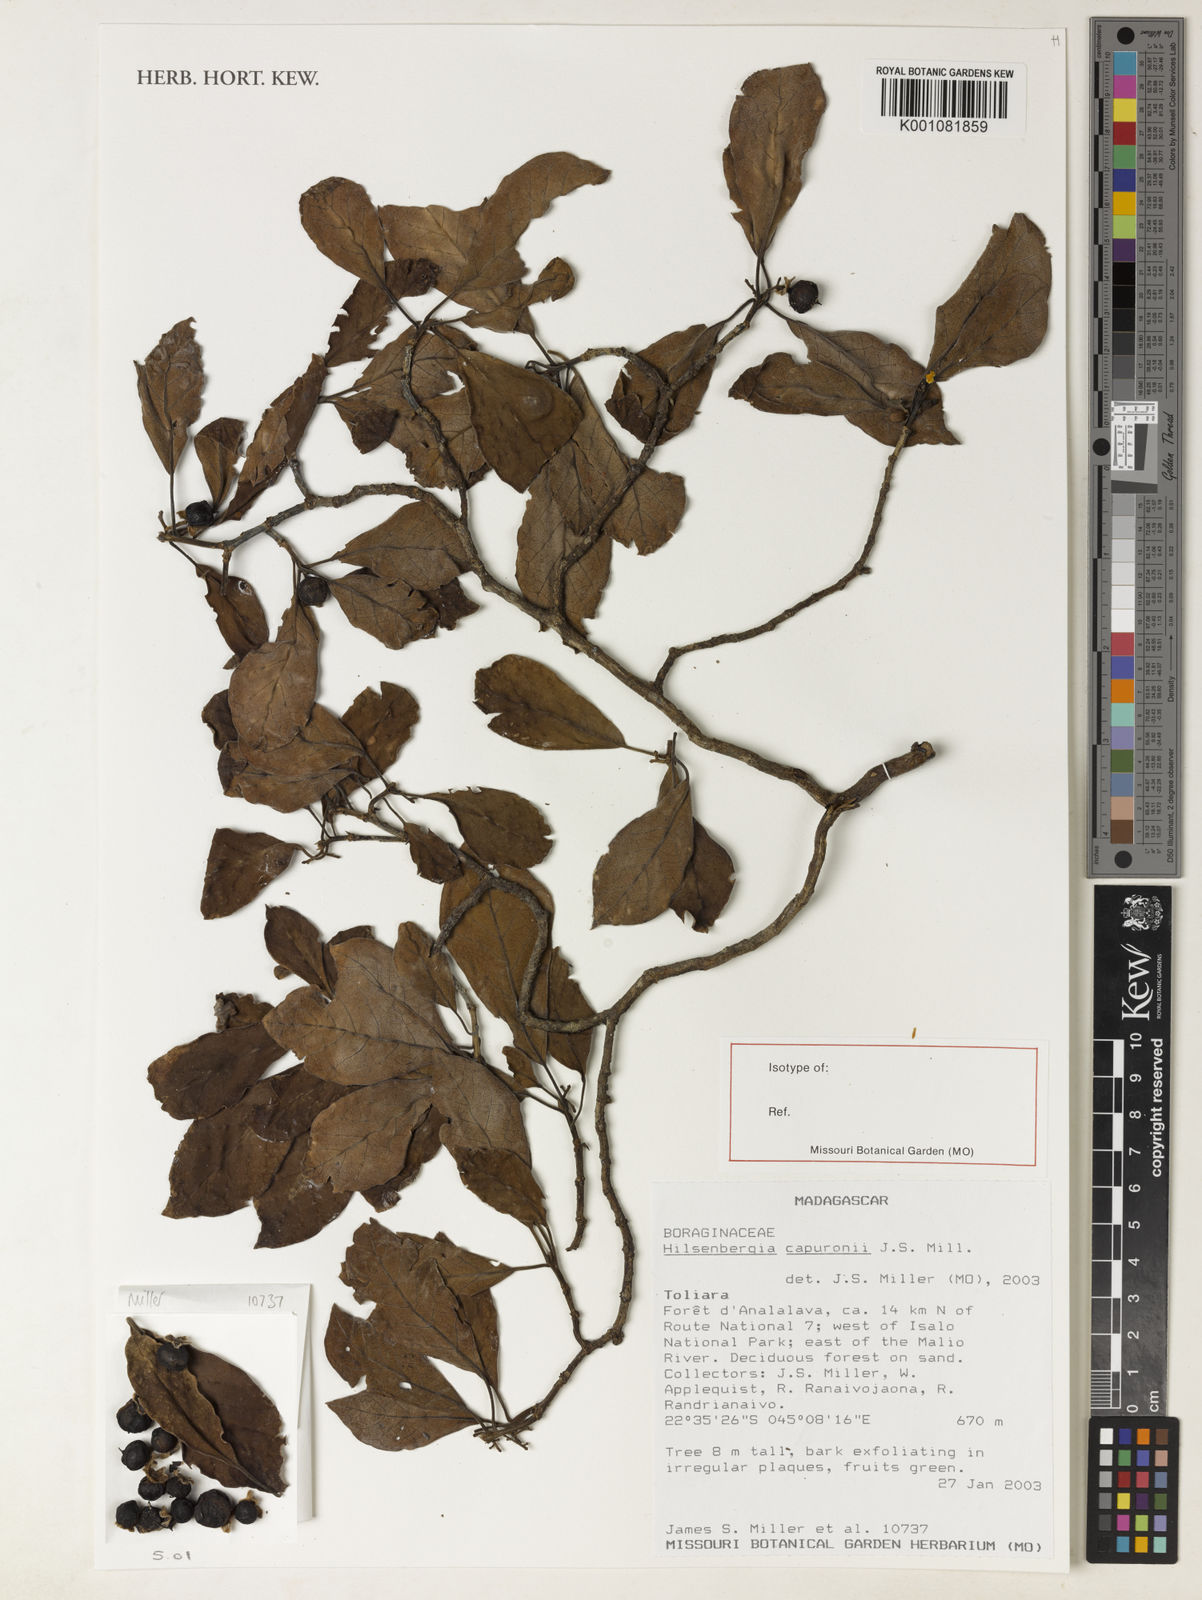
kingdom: Plantae
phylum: Tracheophyta
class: Magnoliopsida
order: Boraginales
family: Ehretiaceae
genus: Bourreria
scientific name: Bourreria capuronii
